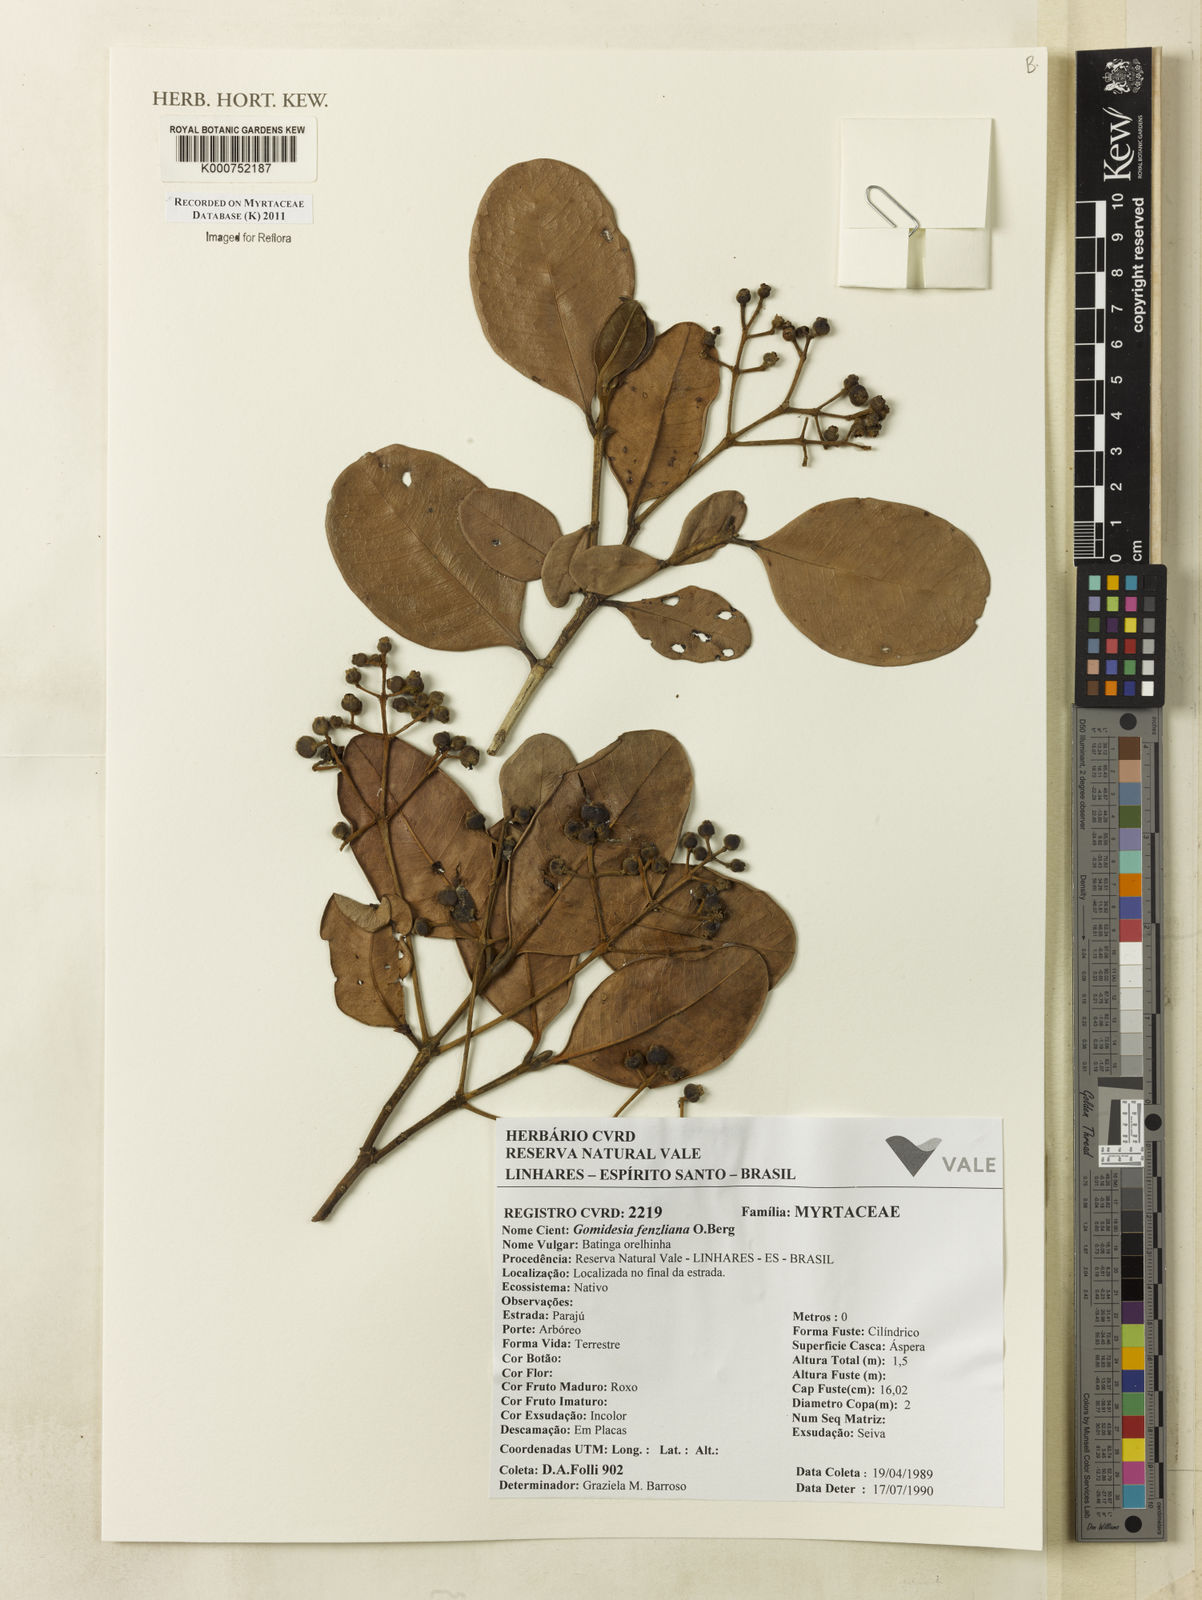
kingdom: Plantae
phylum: Tracheophyta
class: Magnoliopsida
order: Myrtales
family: Myrtaceae
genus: Myrcia
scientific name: Myrcia ilheosensis
